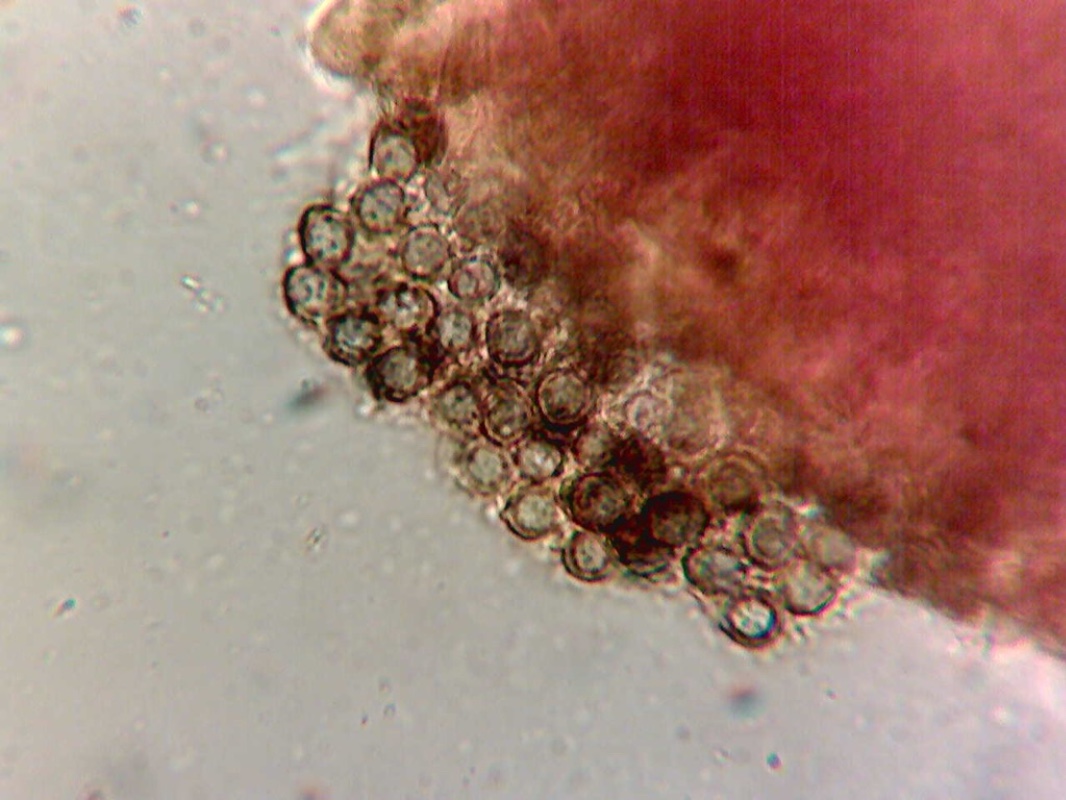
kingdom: Fungi
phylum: Basidiomycota
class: Agaricomycetes
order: Russulales
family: Russulaceae
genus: Russula
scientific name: Russula melzeri
